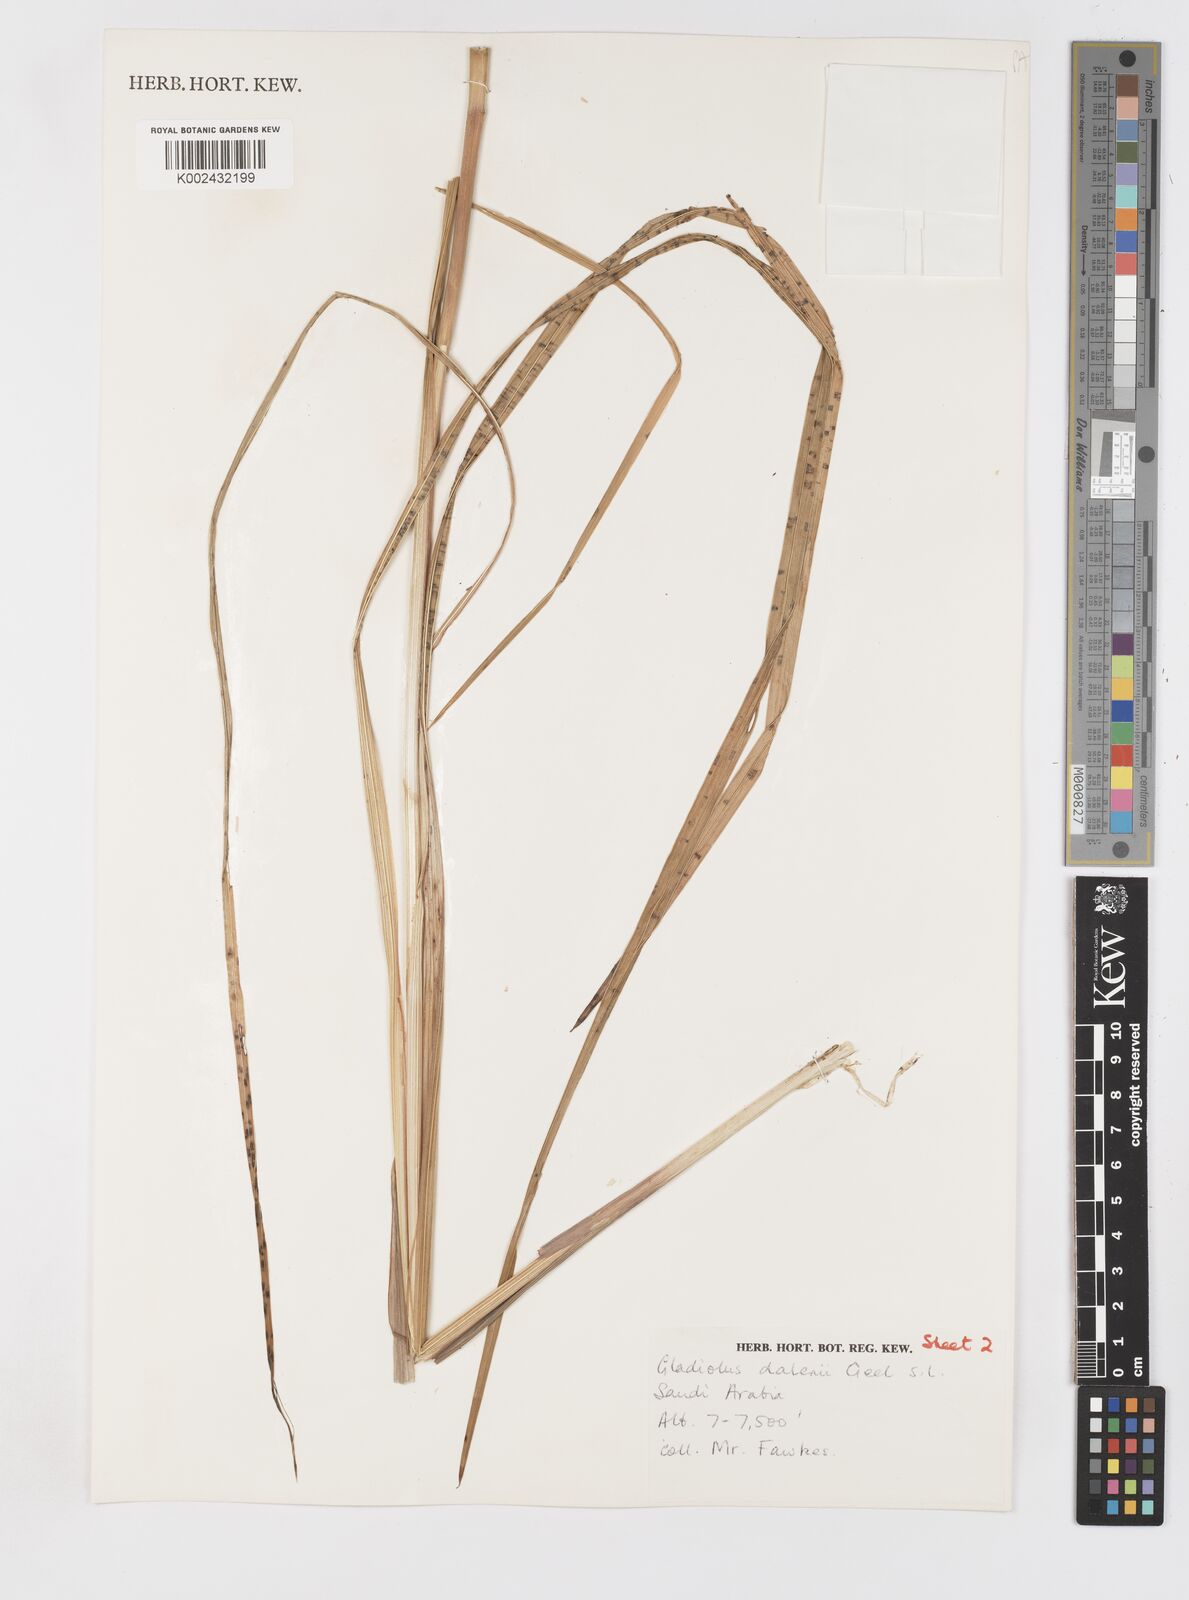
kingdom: Plantae
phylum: Tracheophyta
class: Liliopsida
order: Asparagales
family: Iridaceae
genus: Gladiolus
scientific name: Gladiolus dalenii
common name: Cornflag
